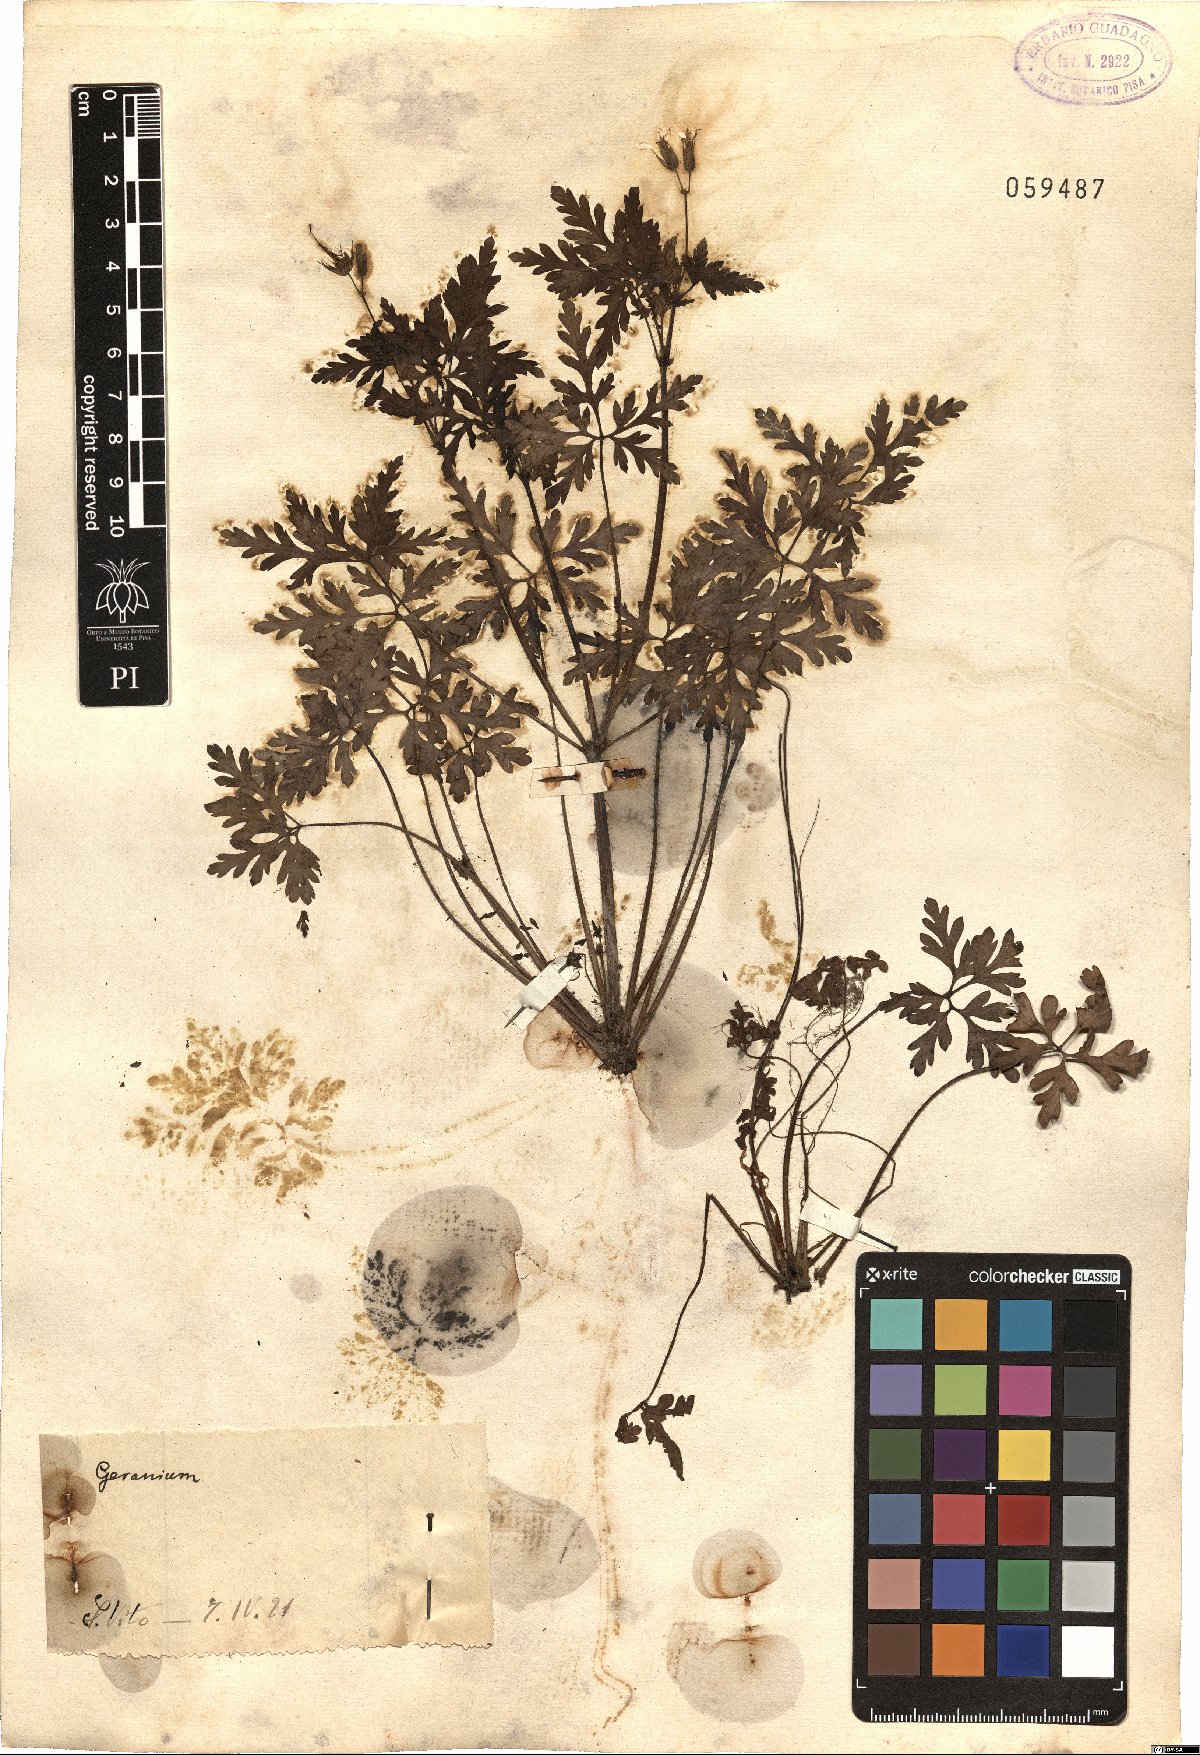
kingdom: Plantae
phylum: Tracheophyta
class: Magnoliopsida
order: Geraniales
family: Geraniaceae
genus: Geranium
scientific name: Geranium
